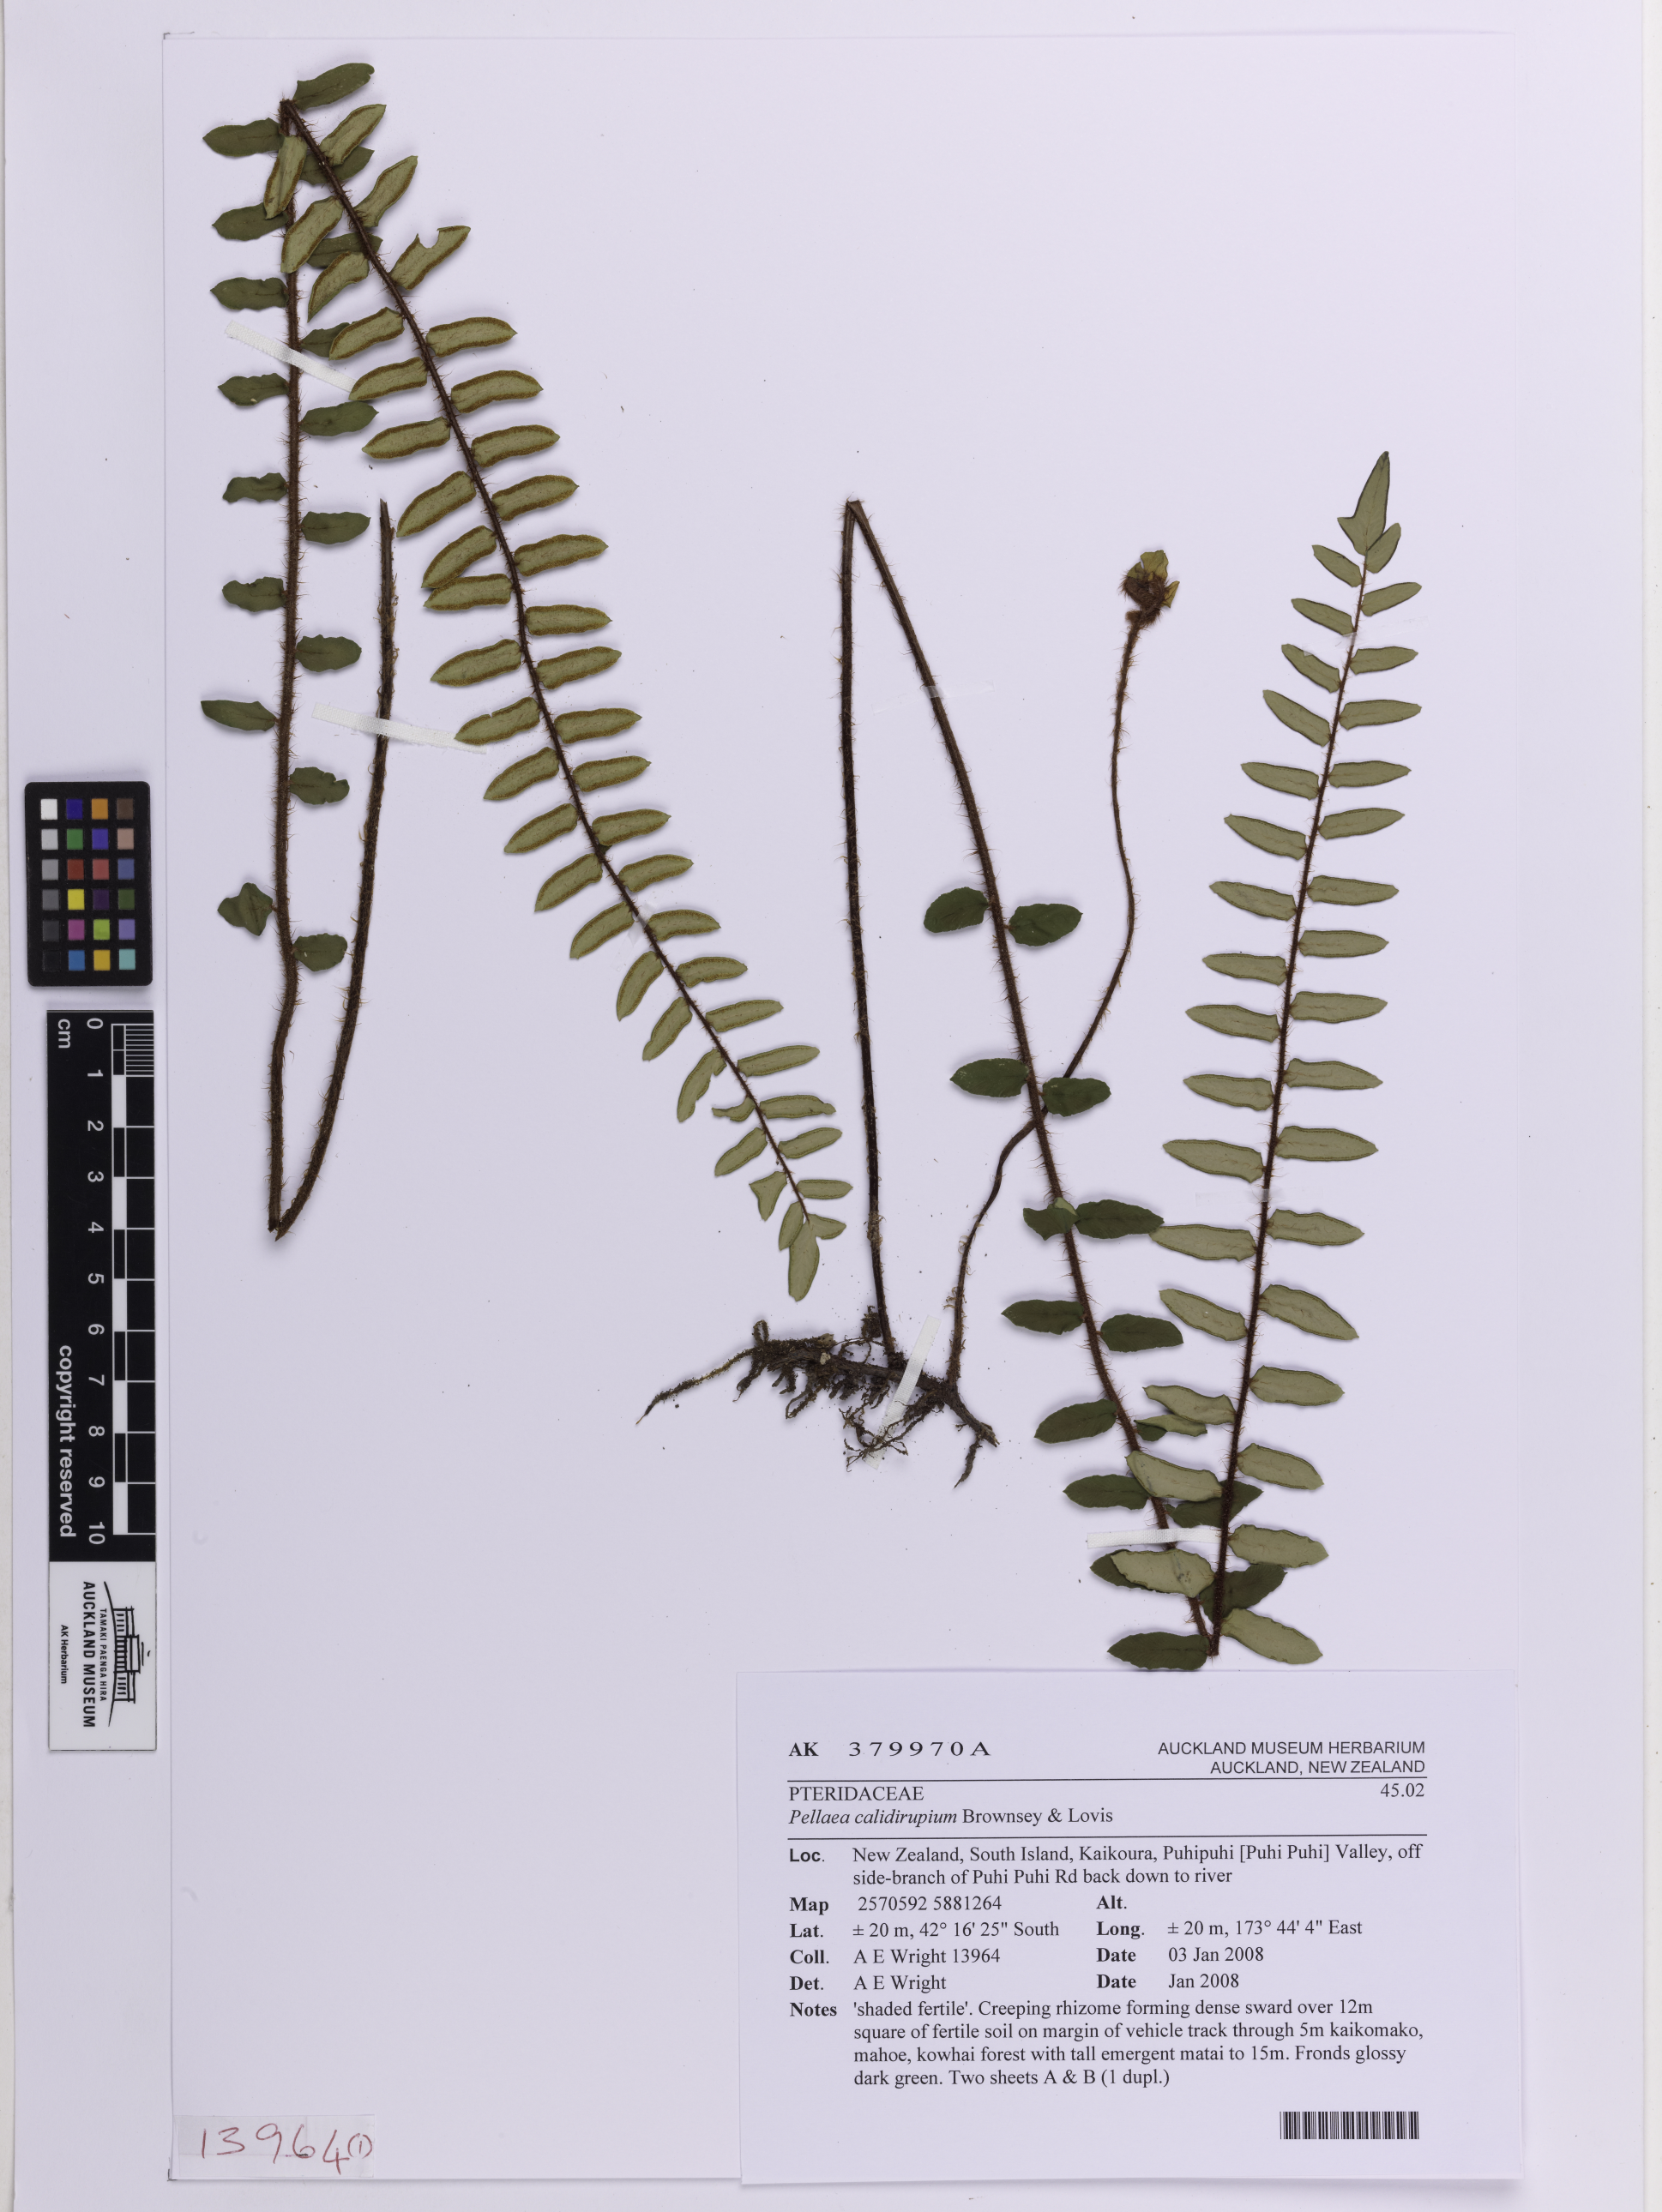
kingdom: Plantae
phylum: Tracheophyta
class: Polypodiopsida
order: Polypodiales
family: Pteridaceae
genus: Pellaea
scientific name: Pellaea calidirupium
